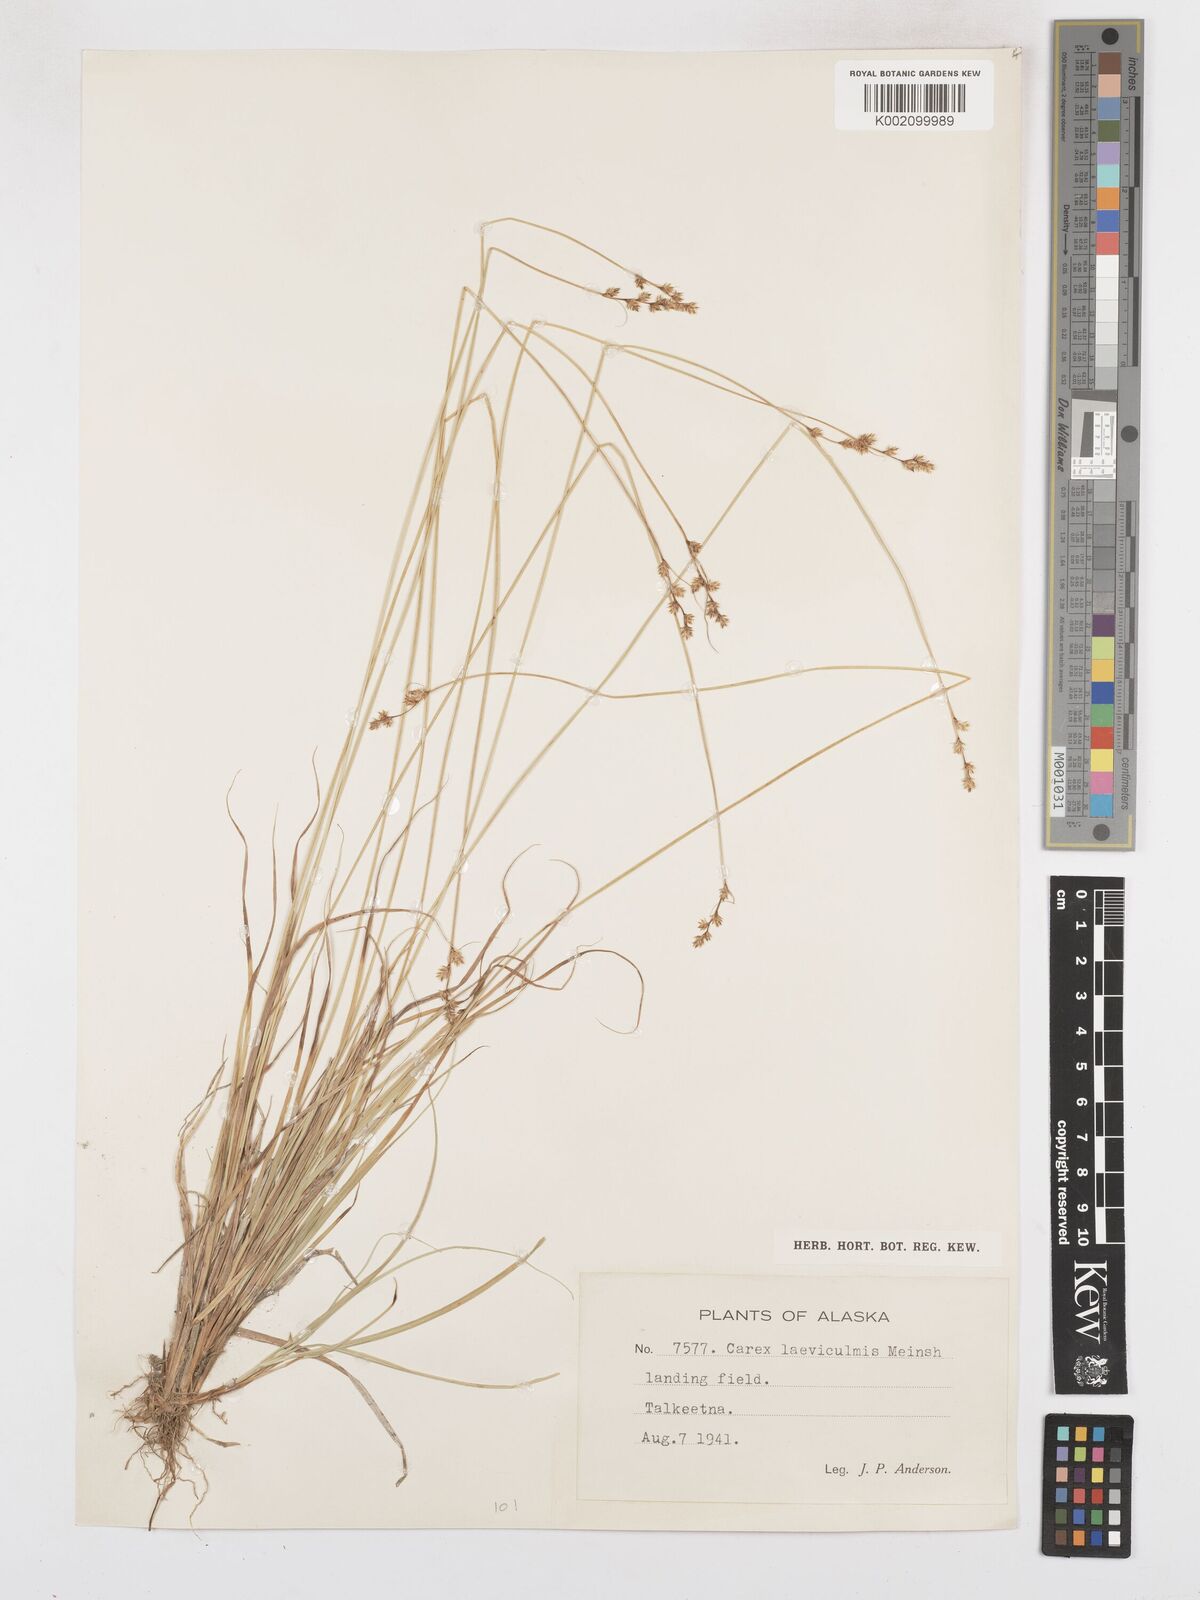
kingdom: Plantae
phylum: Tracheophyta
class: Liliopsida
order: Poales
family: Cyperaceae
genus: Carex
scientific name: Carex laeviculmis
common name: Smooth sedge
